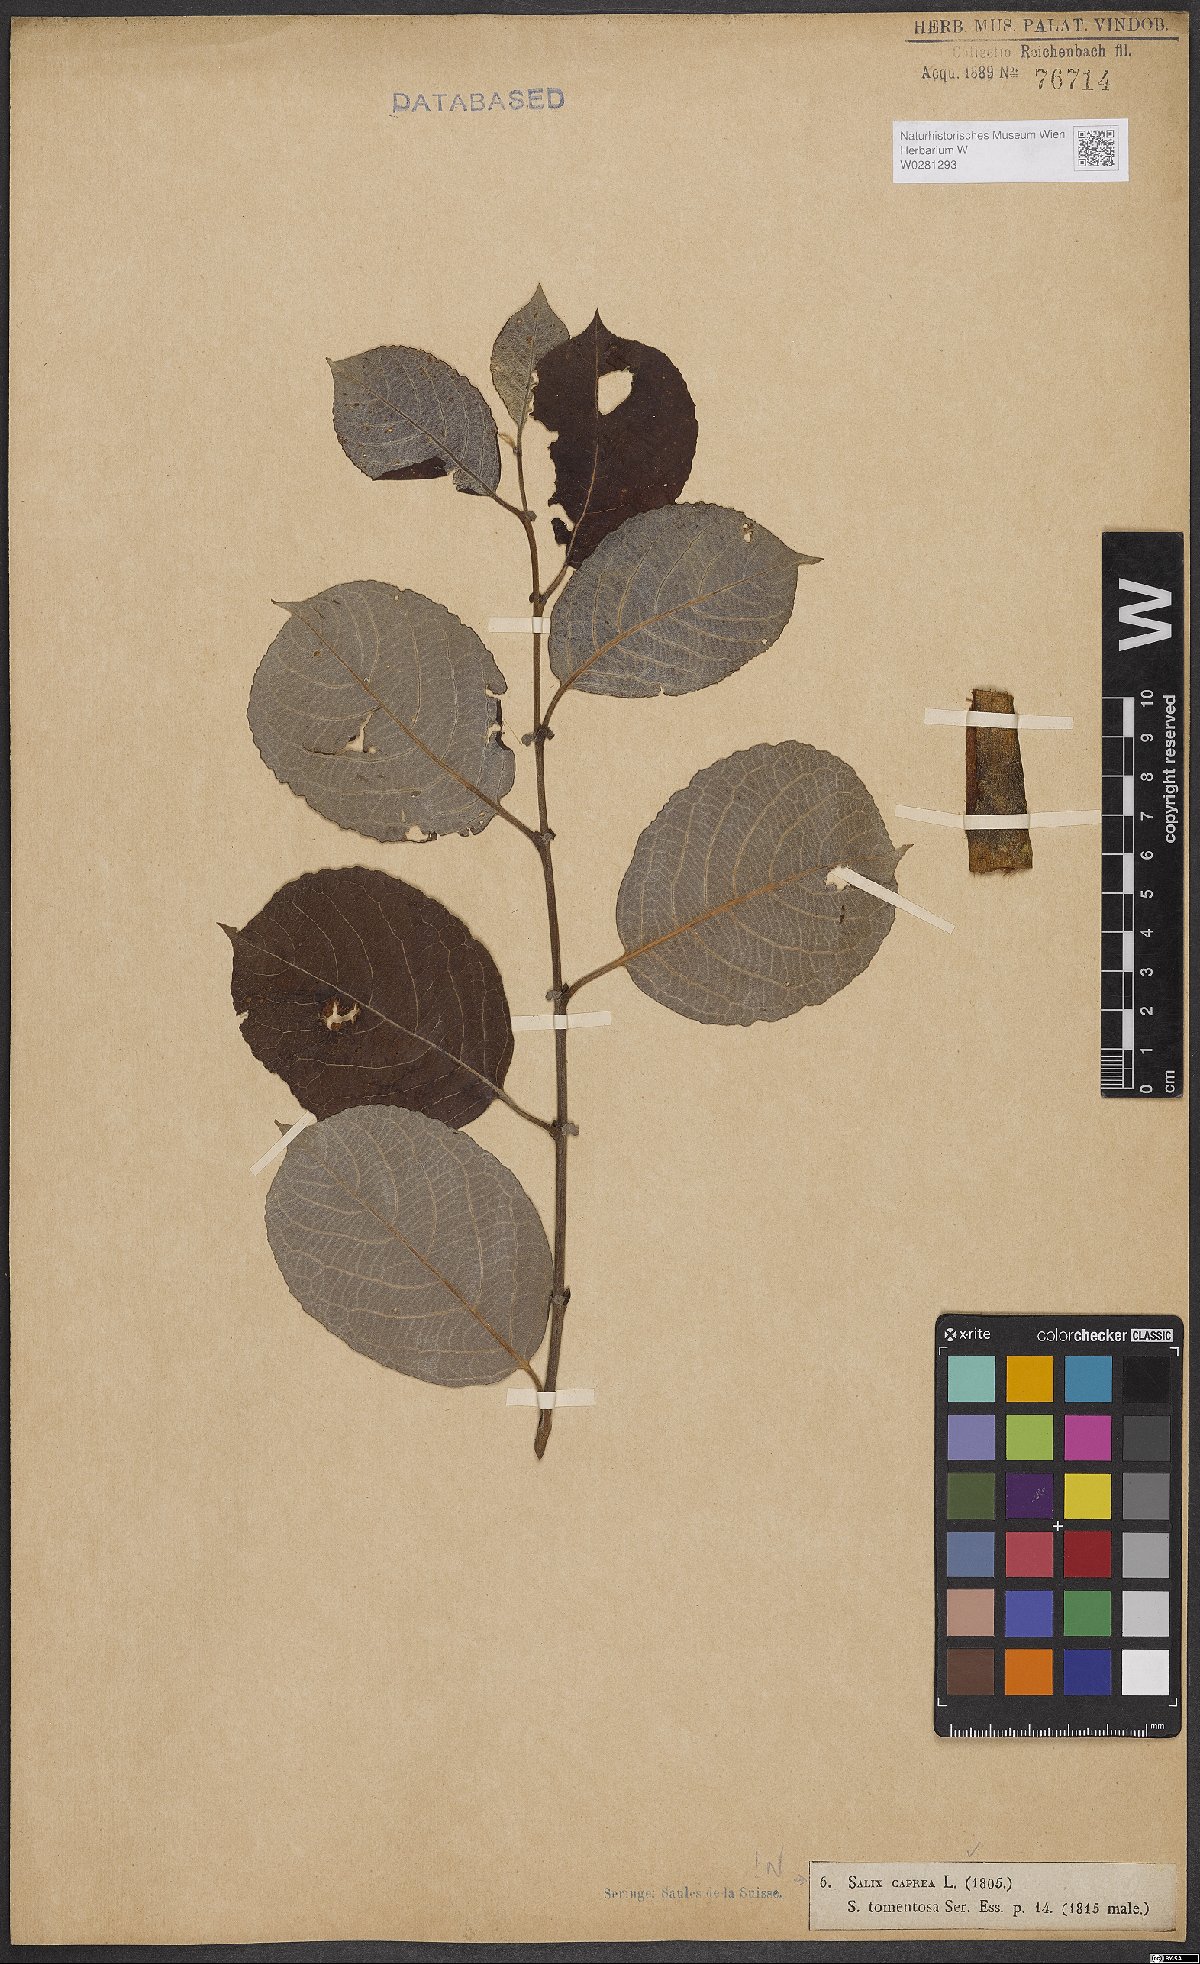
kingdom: Plantae
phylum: Tracheophyta
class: Magnoliopsida
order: Malpighiales
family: Salicaceae
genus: Salix
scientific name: Salix caprea
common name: Goat willow
